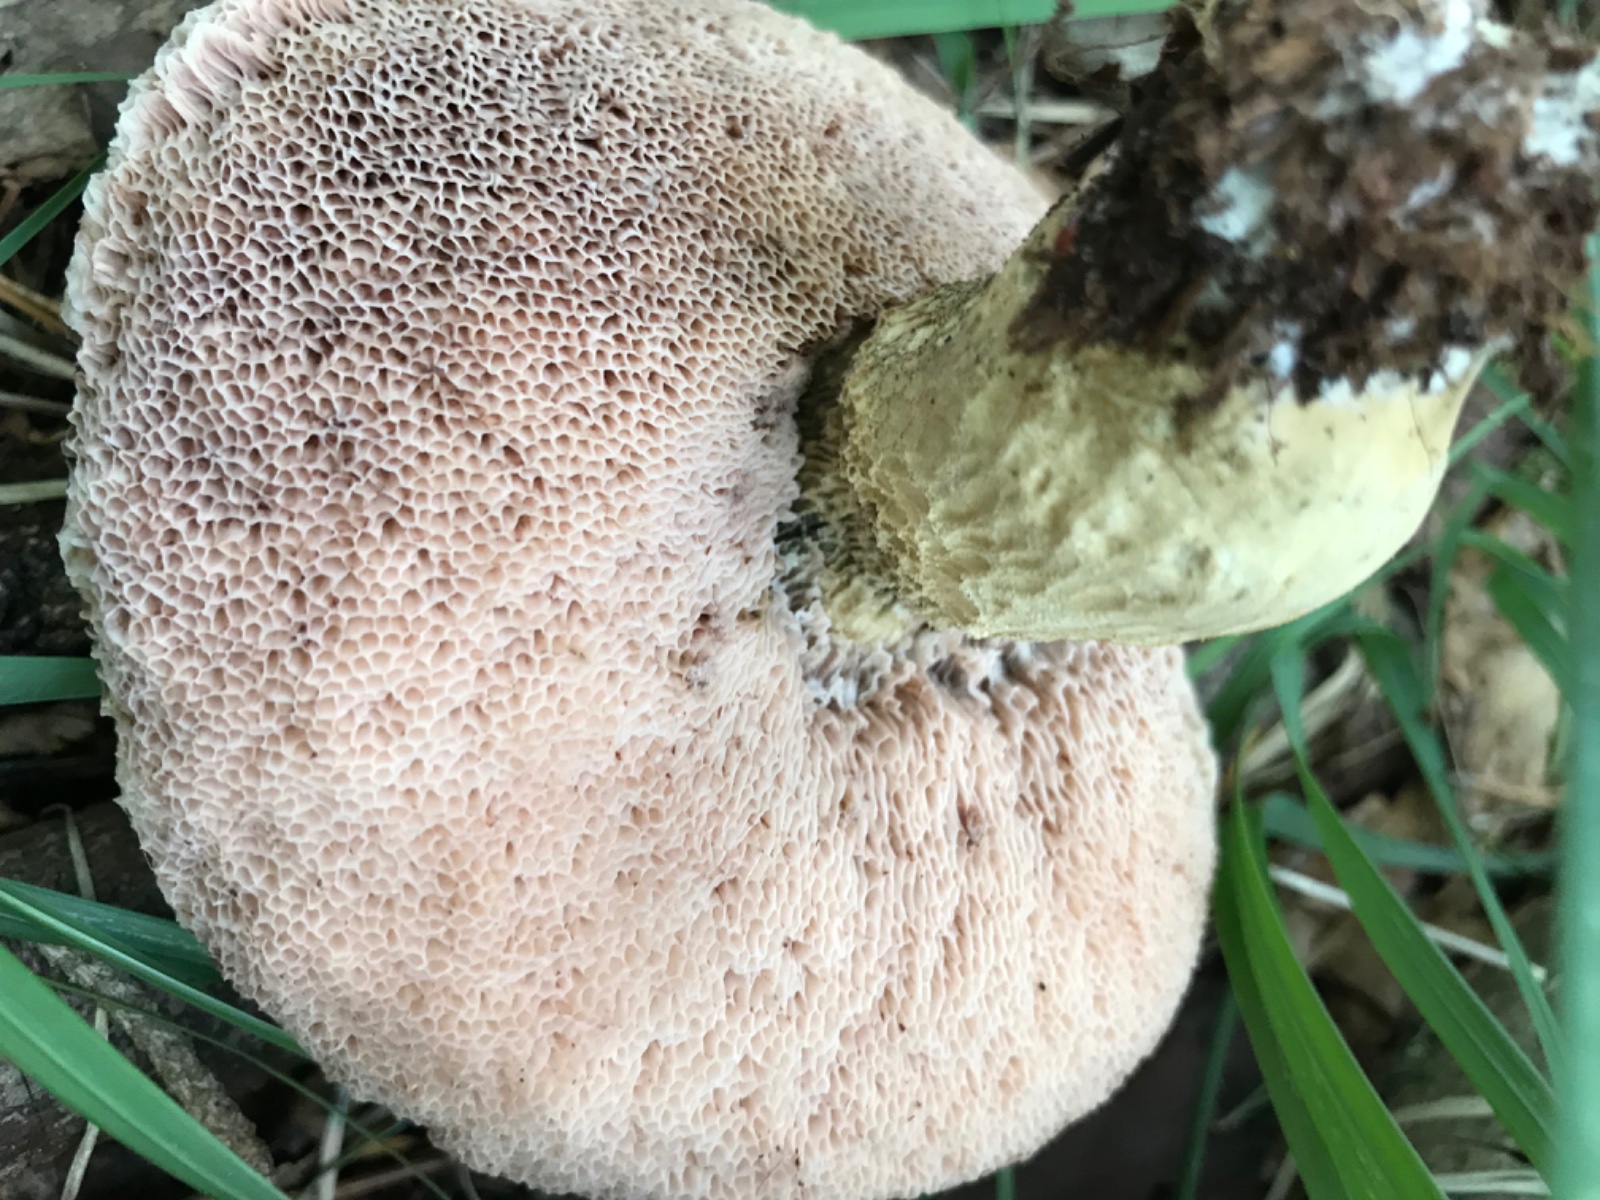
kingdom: Fungi
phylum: Basidiomycota
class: Agaricomycetes
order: Boletales
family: Boletaceae
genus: Tylopilus
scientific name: Tylopilus felleus
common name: galderørhat
